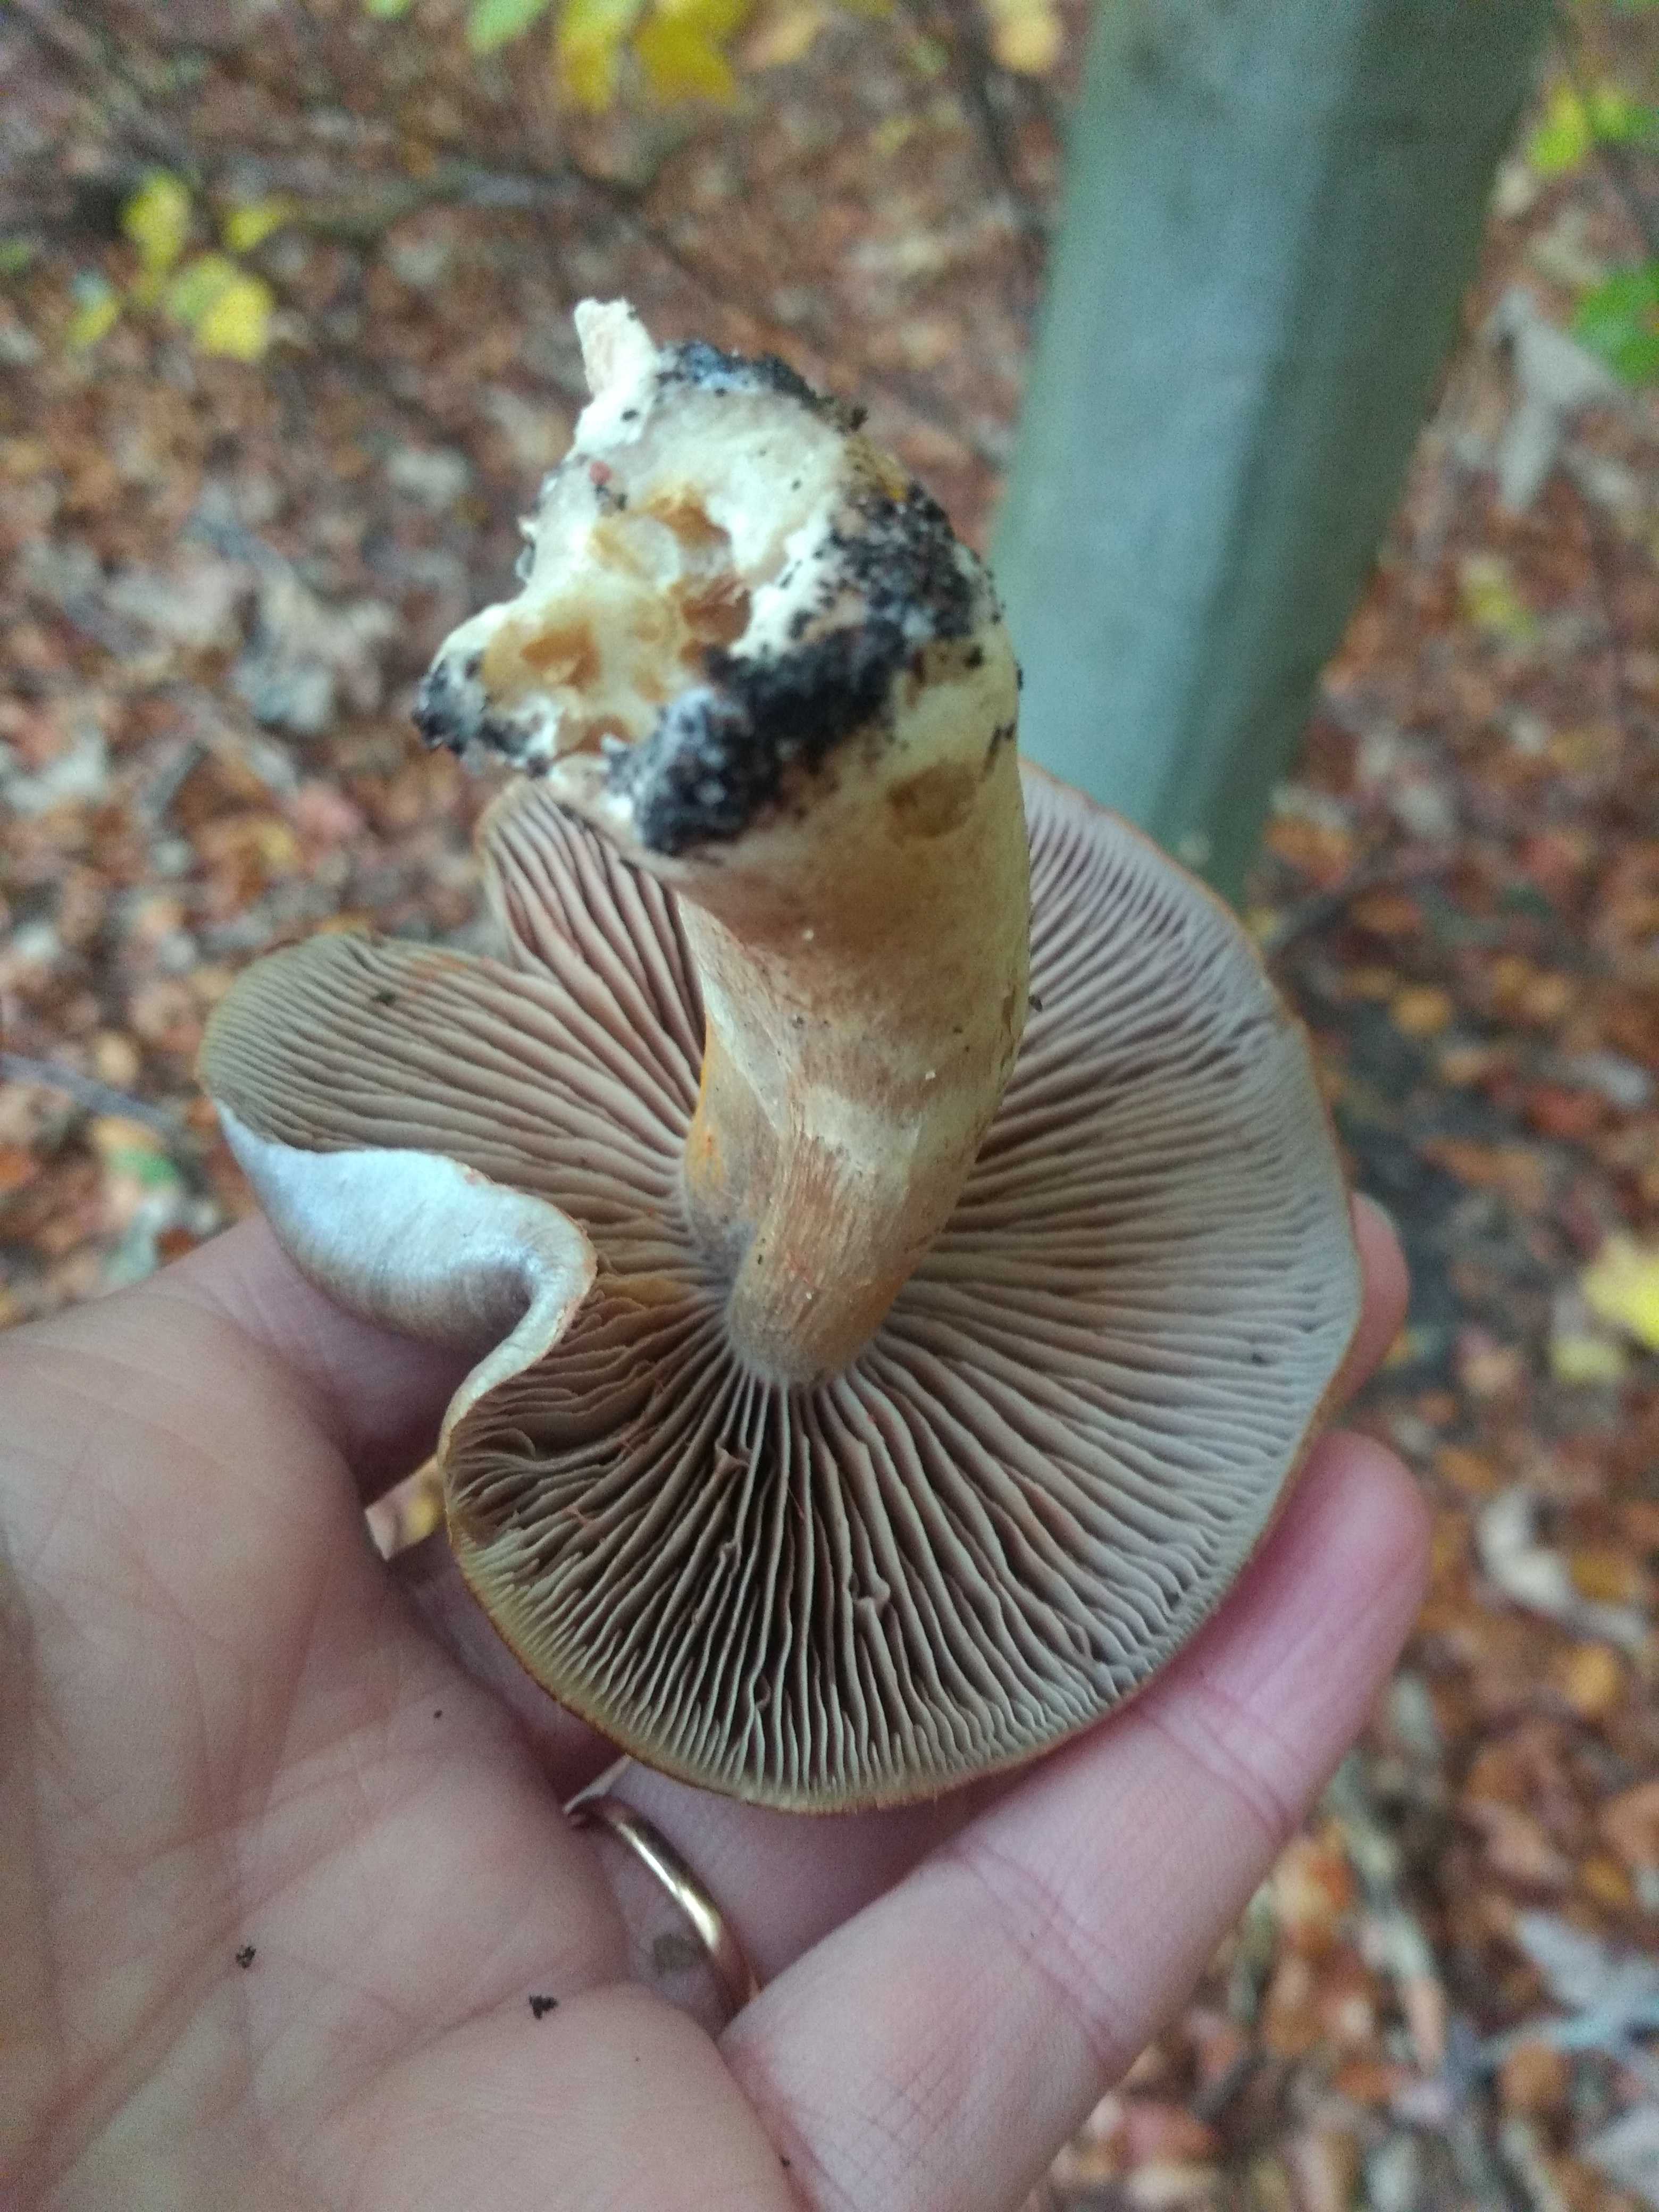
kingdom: Fungi
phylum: Basidiomycota
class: Agaricomycetes
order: Agaricales
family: Cortinariaceae
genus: Cortinarius
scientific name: Cortinarius
